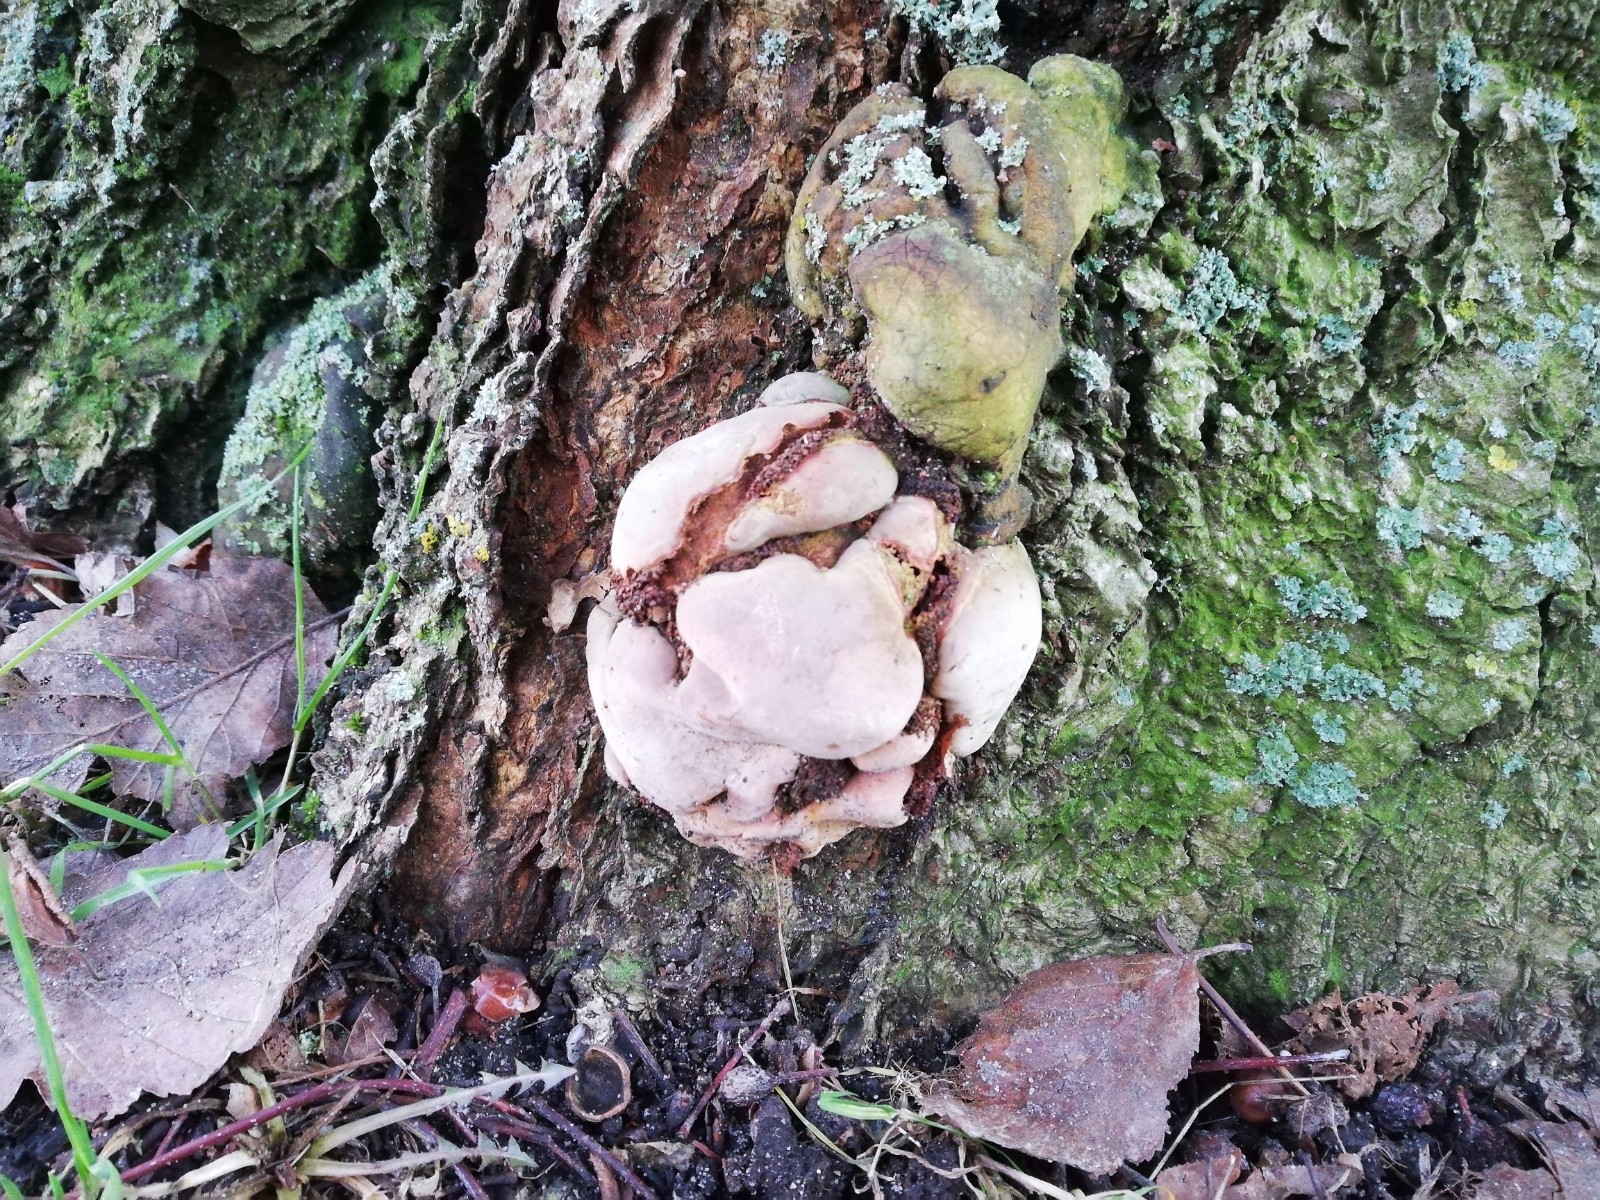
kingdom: Fungi
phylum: Basidiomycota
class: Agaricomycetes
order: Polyporales
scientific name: Polyporales
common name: poresvampordenen
